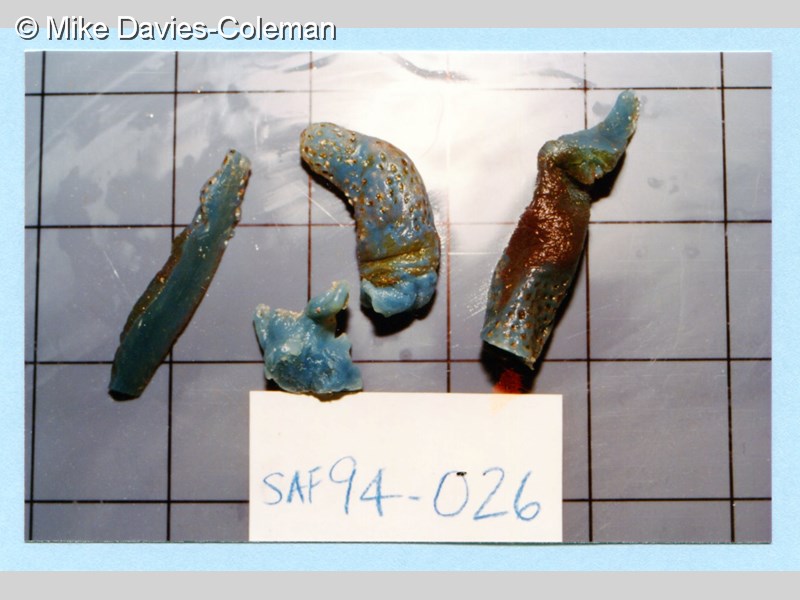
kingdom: Animalia
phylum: Chordata
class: Ascidiacea
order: Aplousobranchia
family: Polycitoridae
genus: Eudistoma
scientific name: Eudistoma caeruleum
